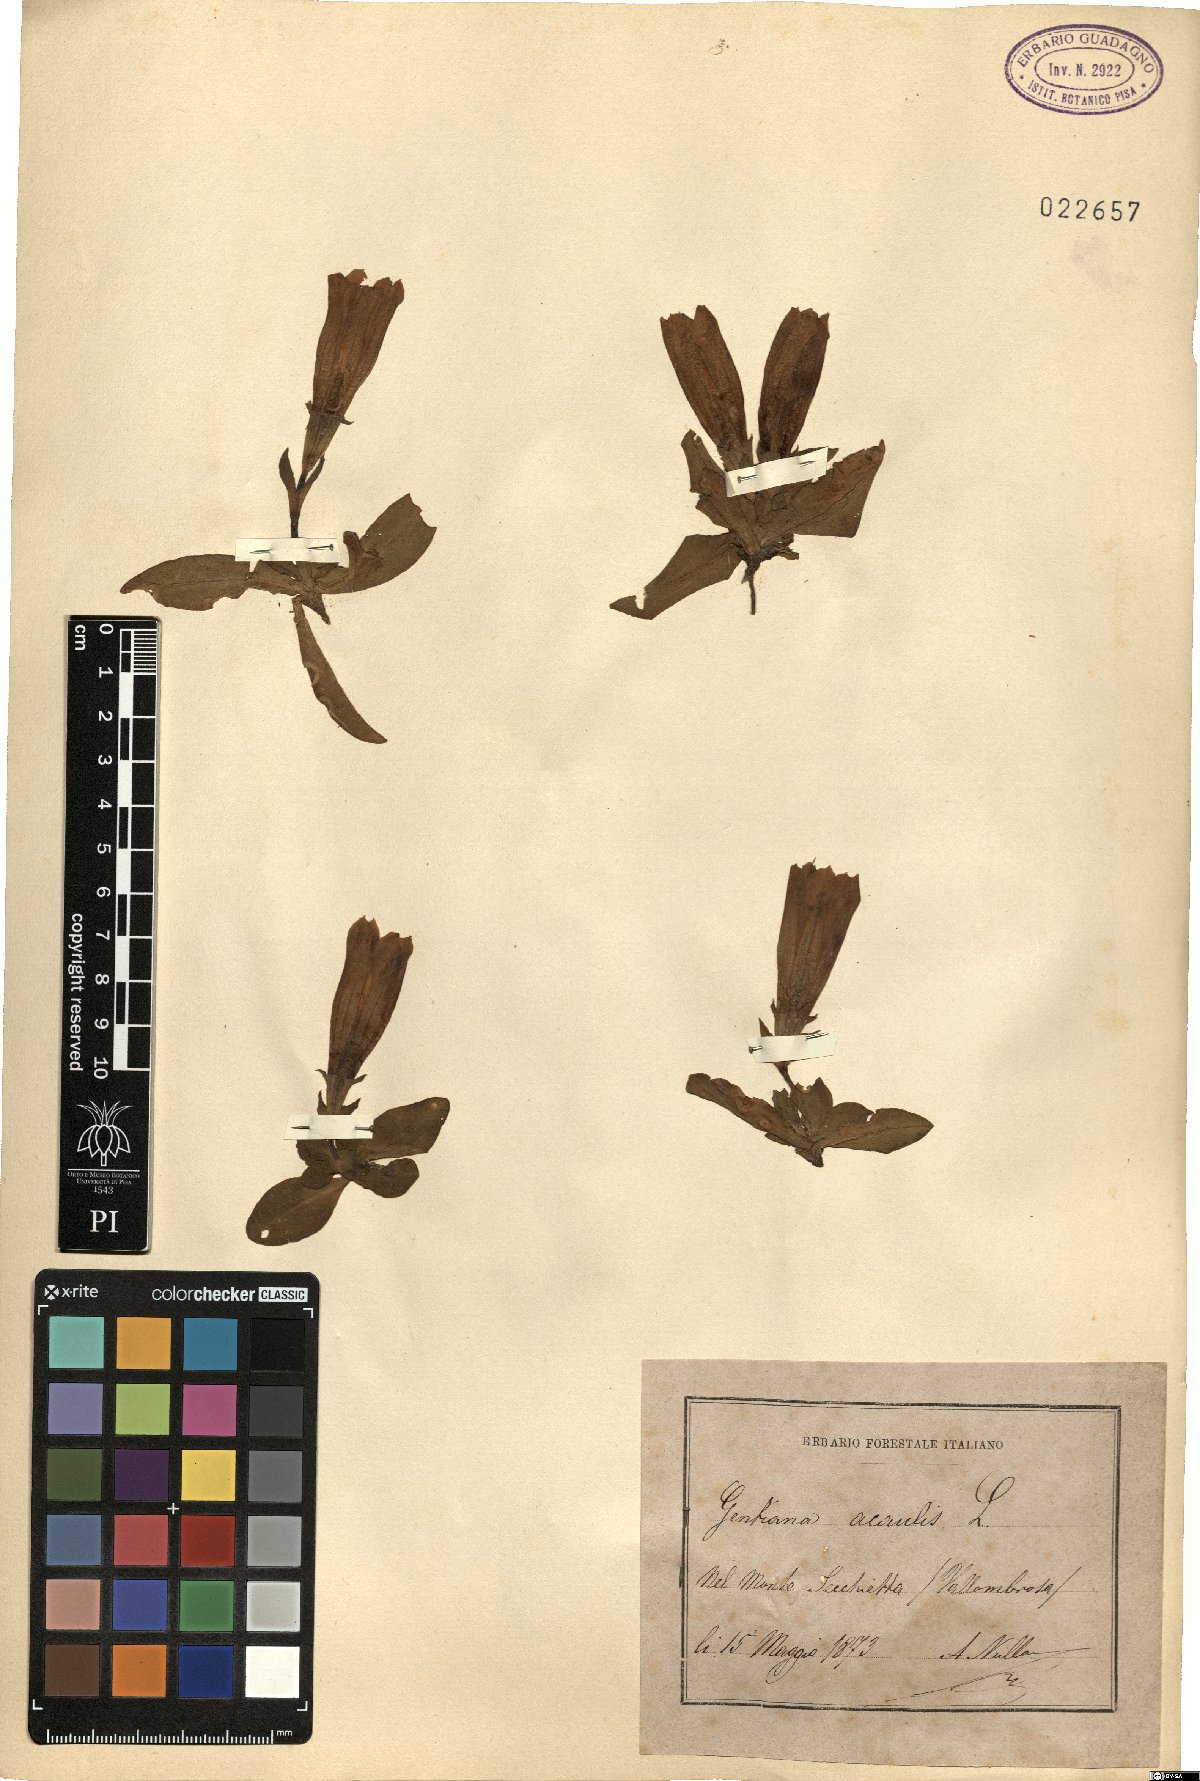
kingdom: Plantae
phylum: Tracheophyta
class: Magnoliopsida
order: Gentianales
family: Gentianaceae
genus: Gentiana
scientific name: Gentiana acaulis
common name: Trumpet gentian
